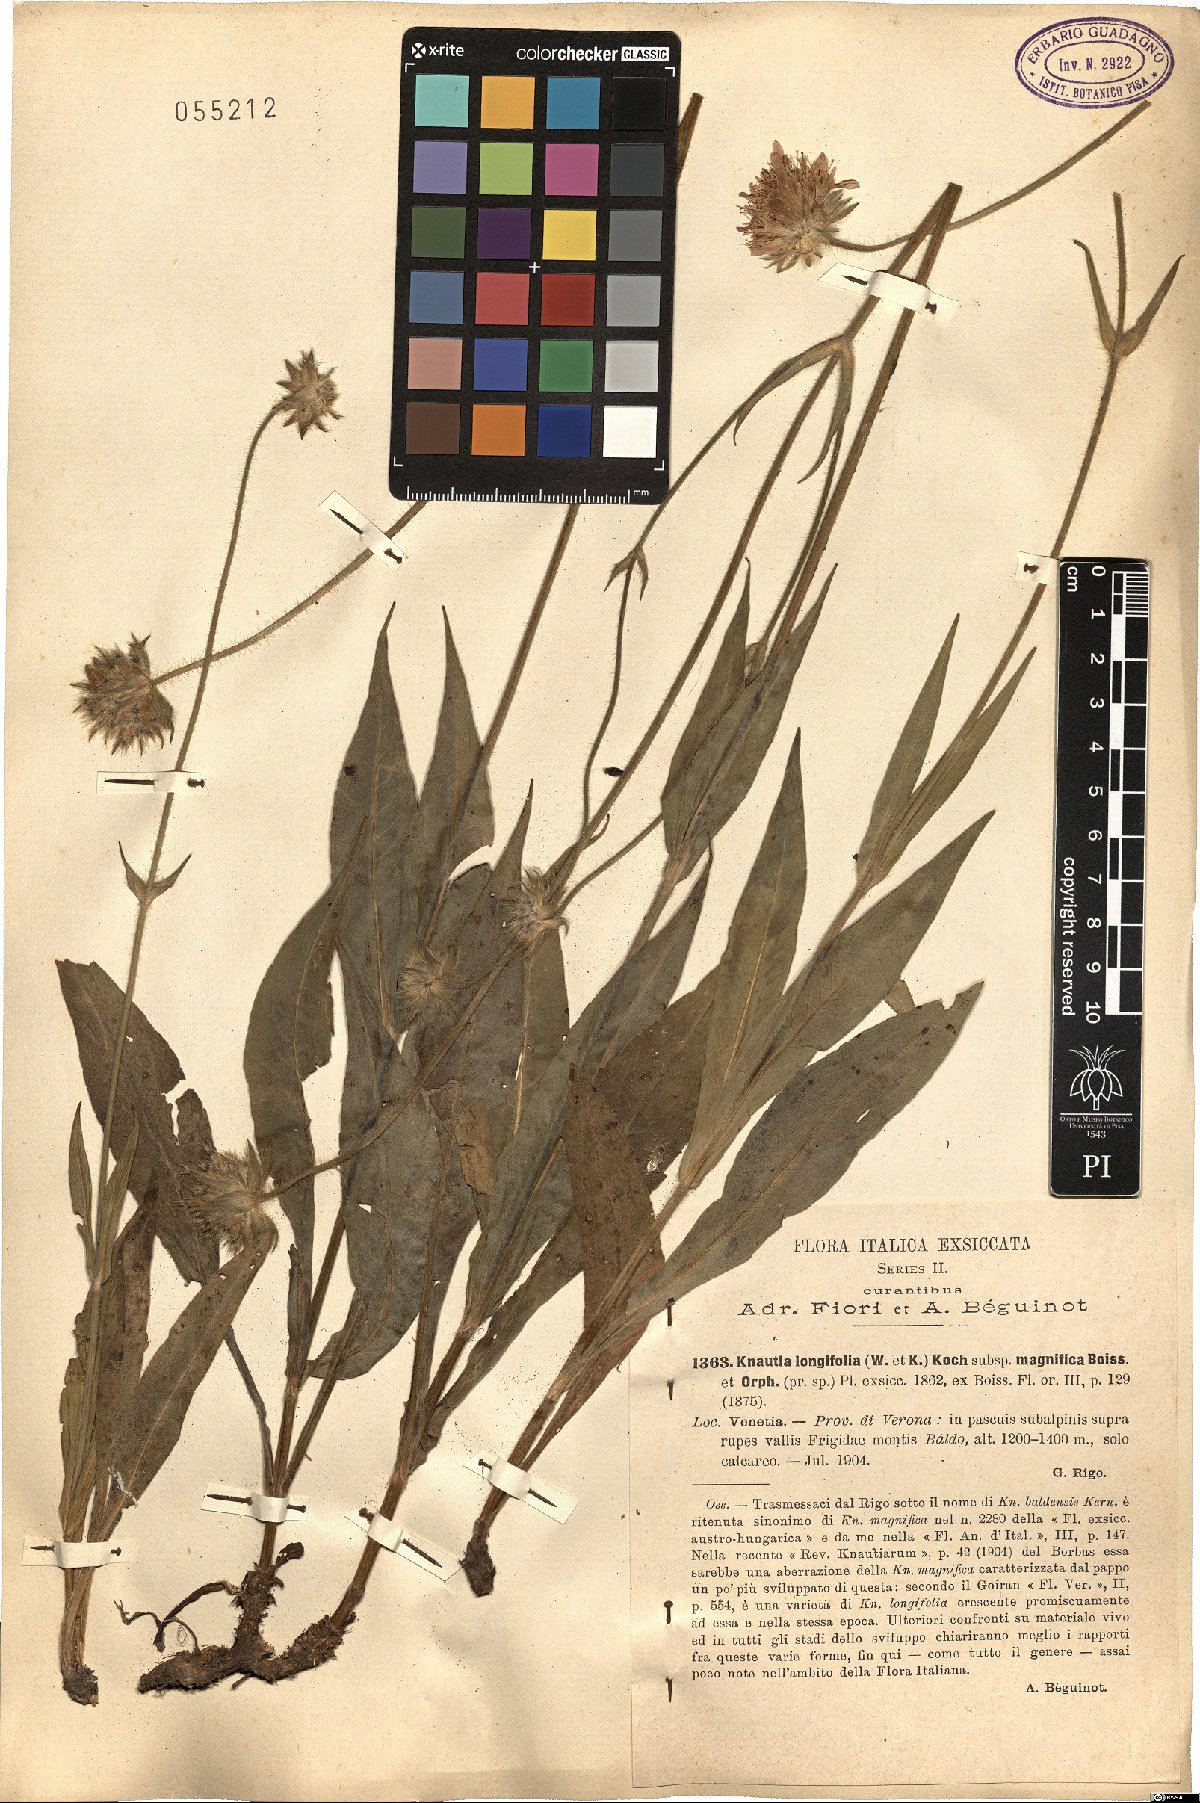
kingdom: Plantae
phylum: Tracheophyta
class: Magnoliopsida
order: Dipsacales
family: Caprifoliaceae
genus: Knautia
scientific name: Knautia longifolia
